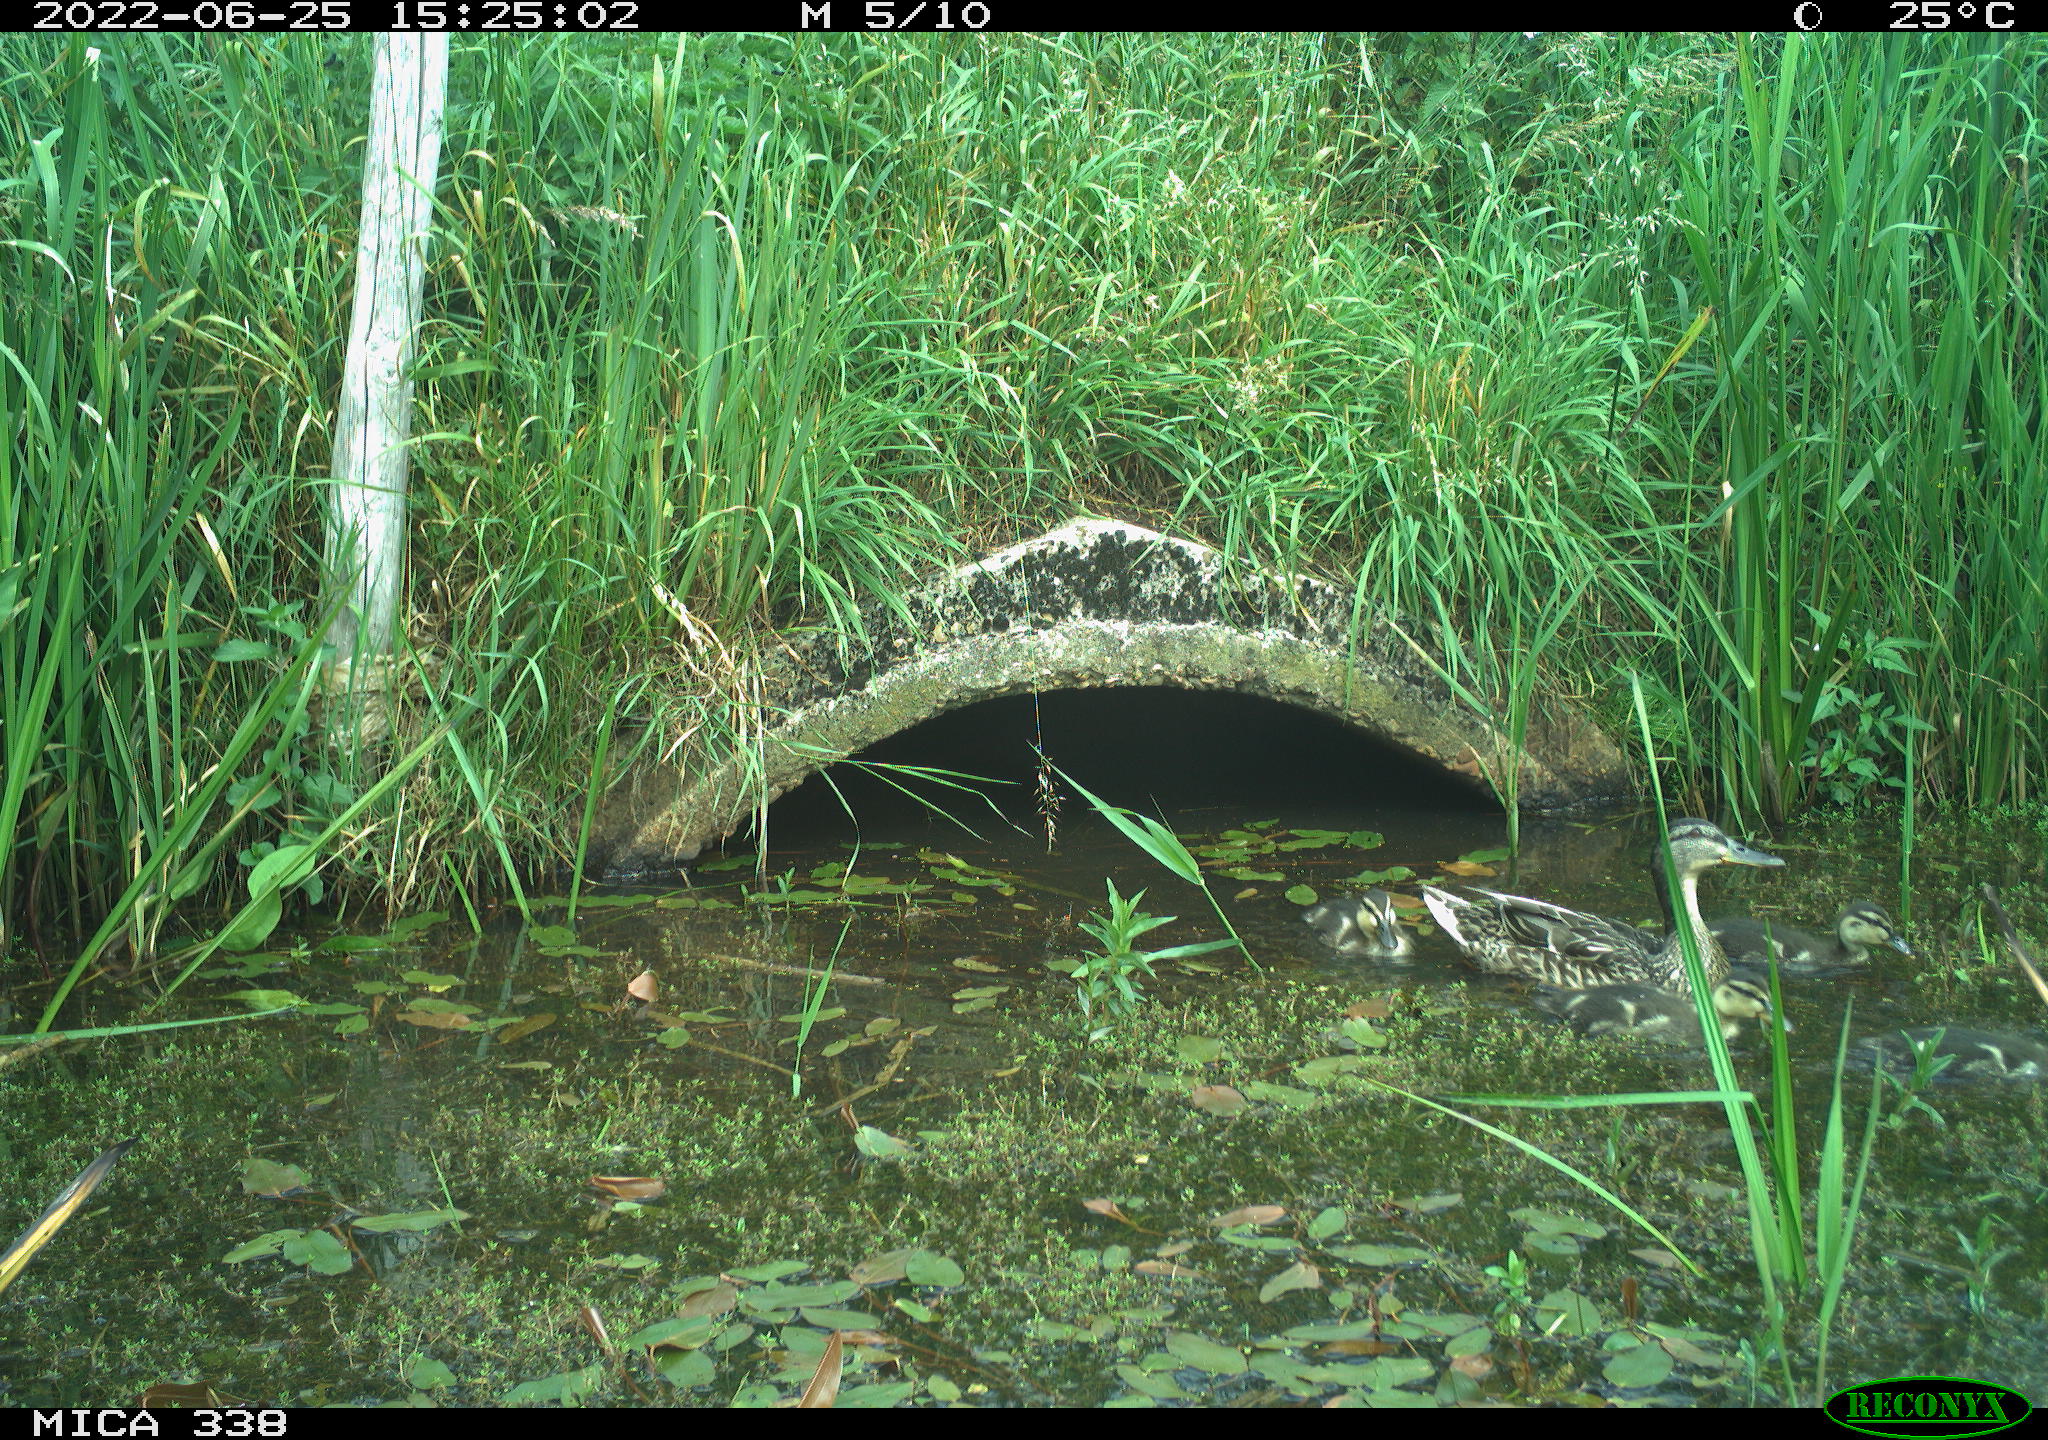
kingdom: Animalia
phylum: Chordata
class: Aves
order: Anseriformes
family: Anatidae
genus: Anas
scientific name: Anas platyrhynchos
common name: Mallard
